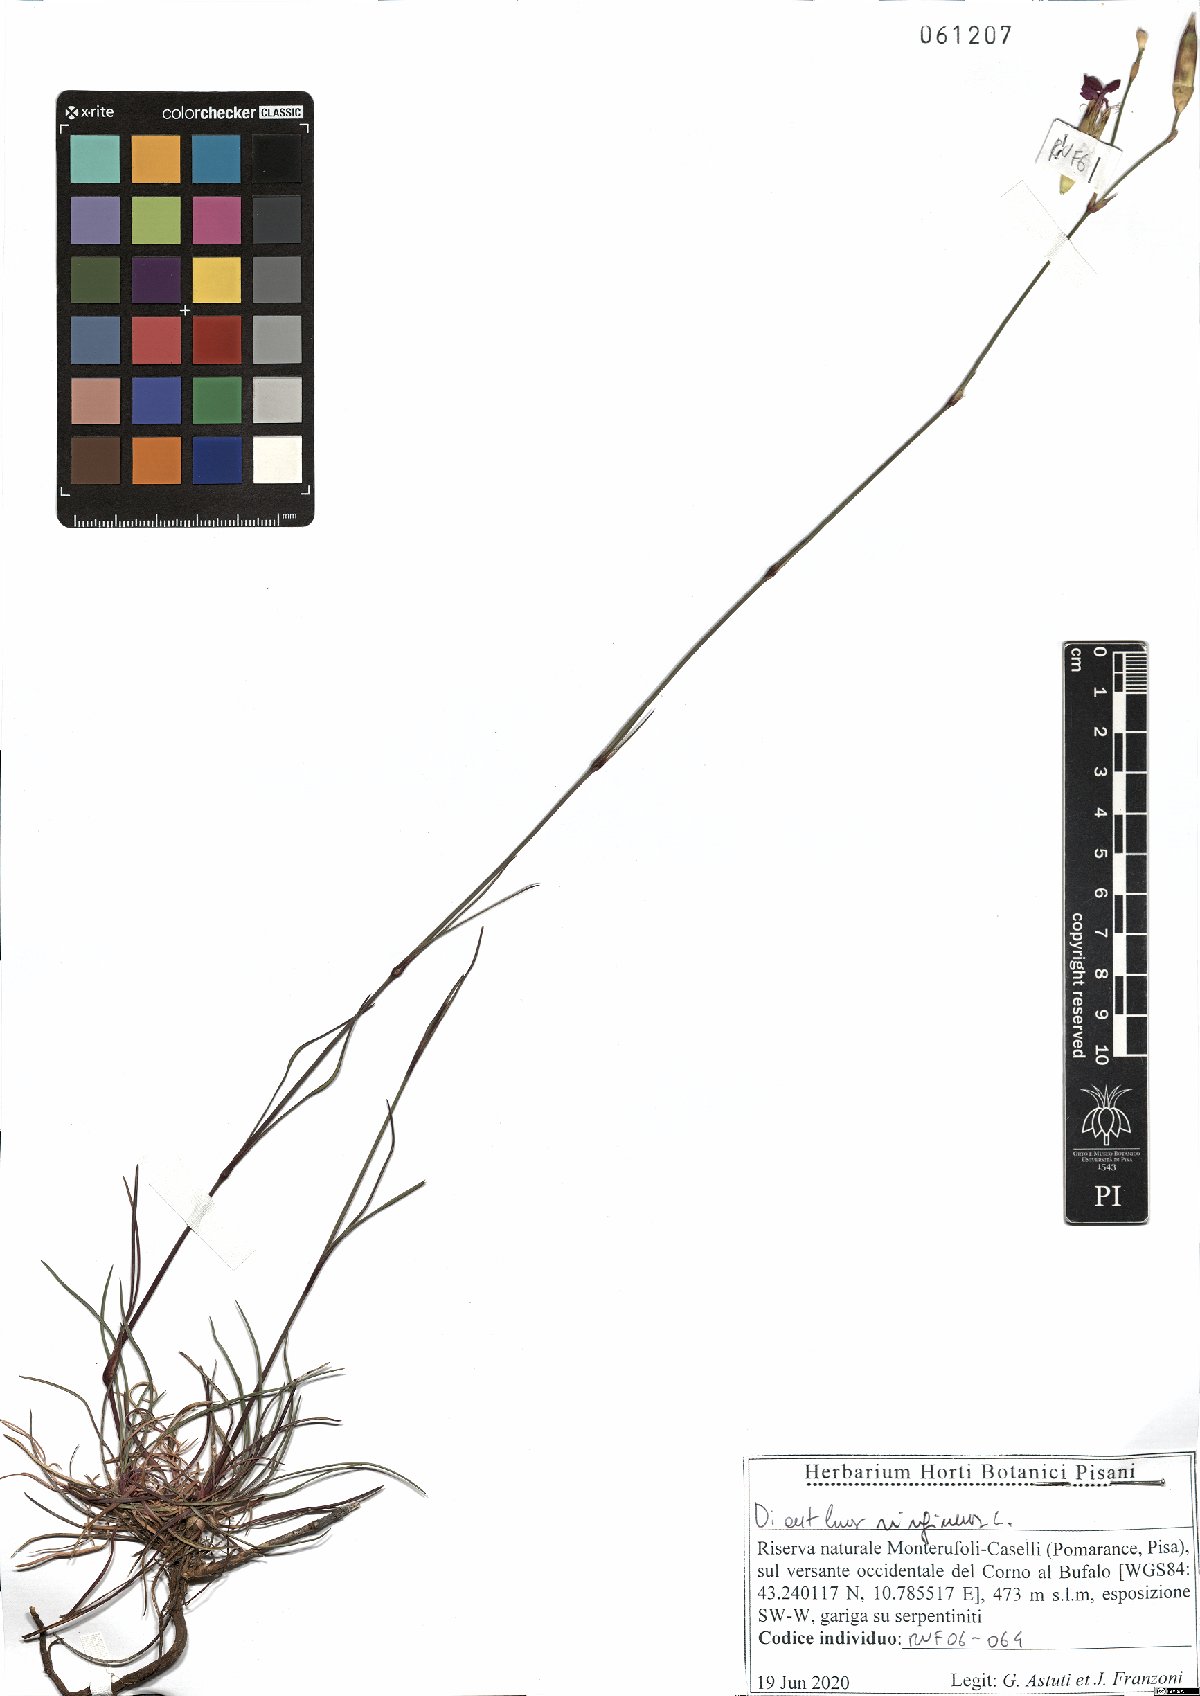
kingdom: Plantae
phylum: Tracheophyta
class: Magnoliopsida
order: Caryophyllales
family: Caryophyllaceae
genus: Dianthus
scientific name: Dianthus virgineus
